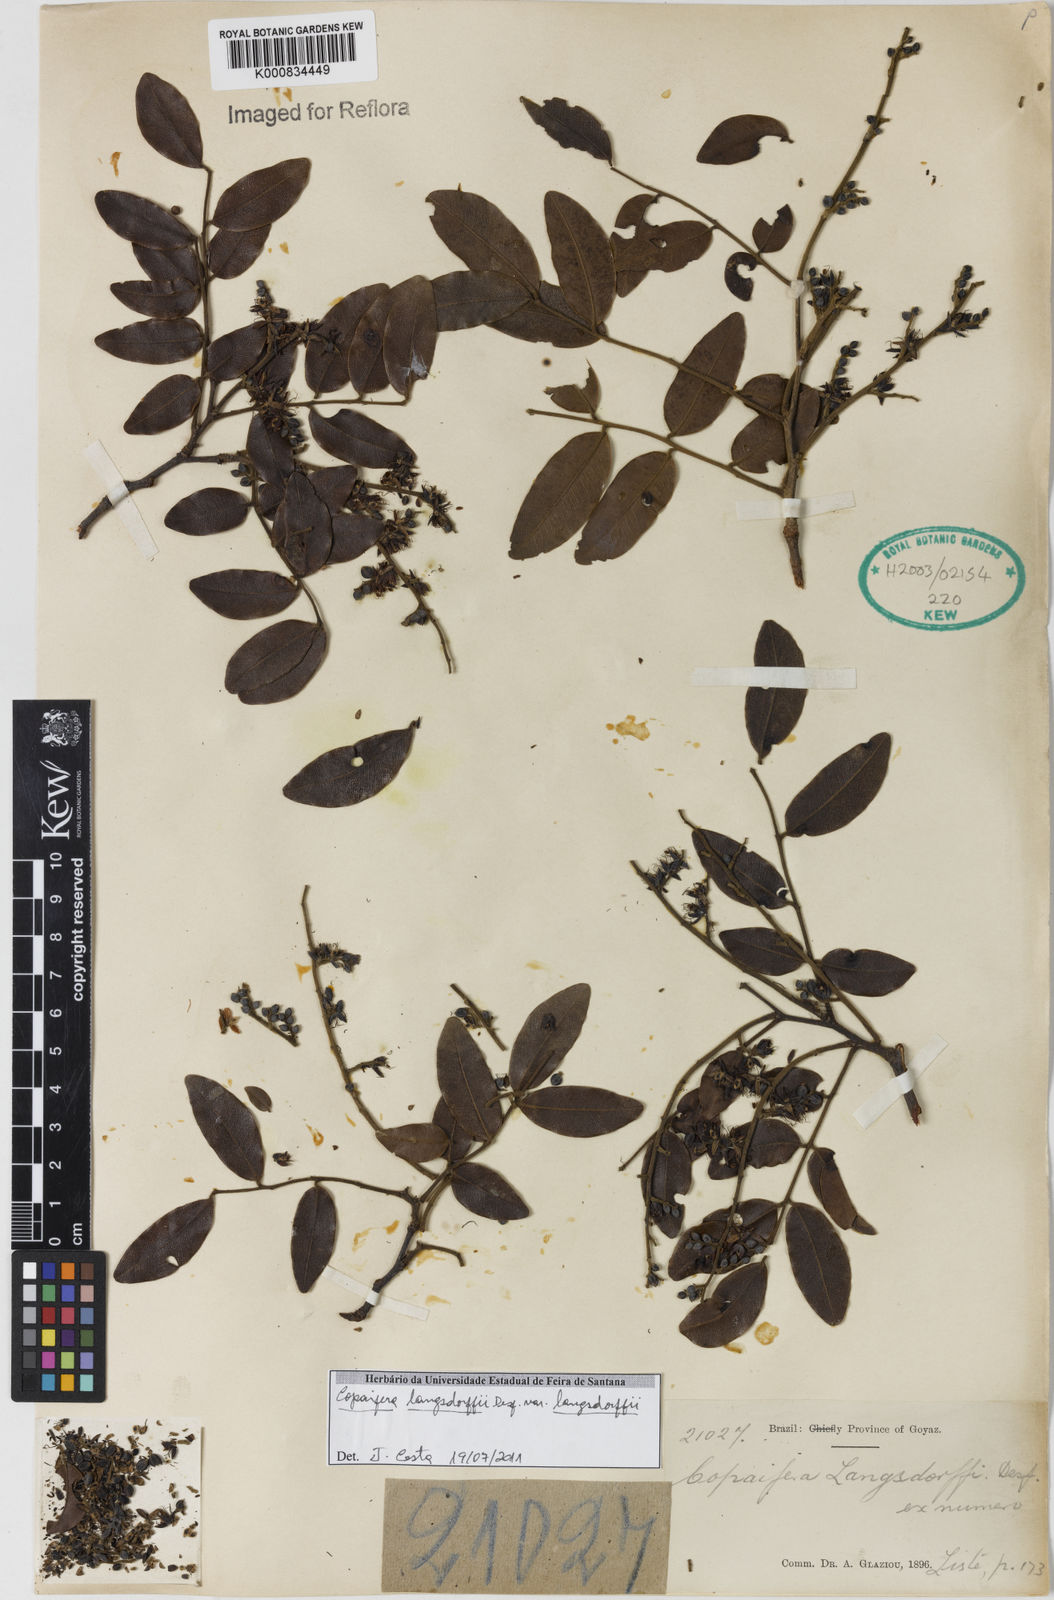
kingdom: Plantae
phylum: Tracheophyta
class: Magnoliopsida
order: Fabales
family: Fabaceae
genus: Copaifera
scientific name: Copaifera langsdorffii
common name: Brazilian diesel tree
